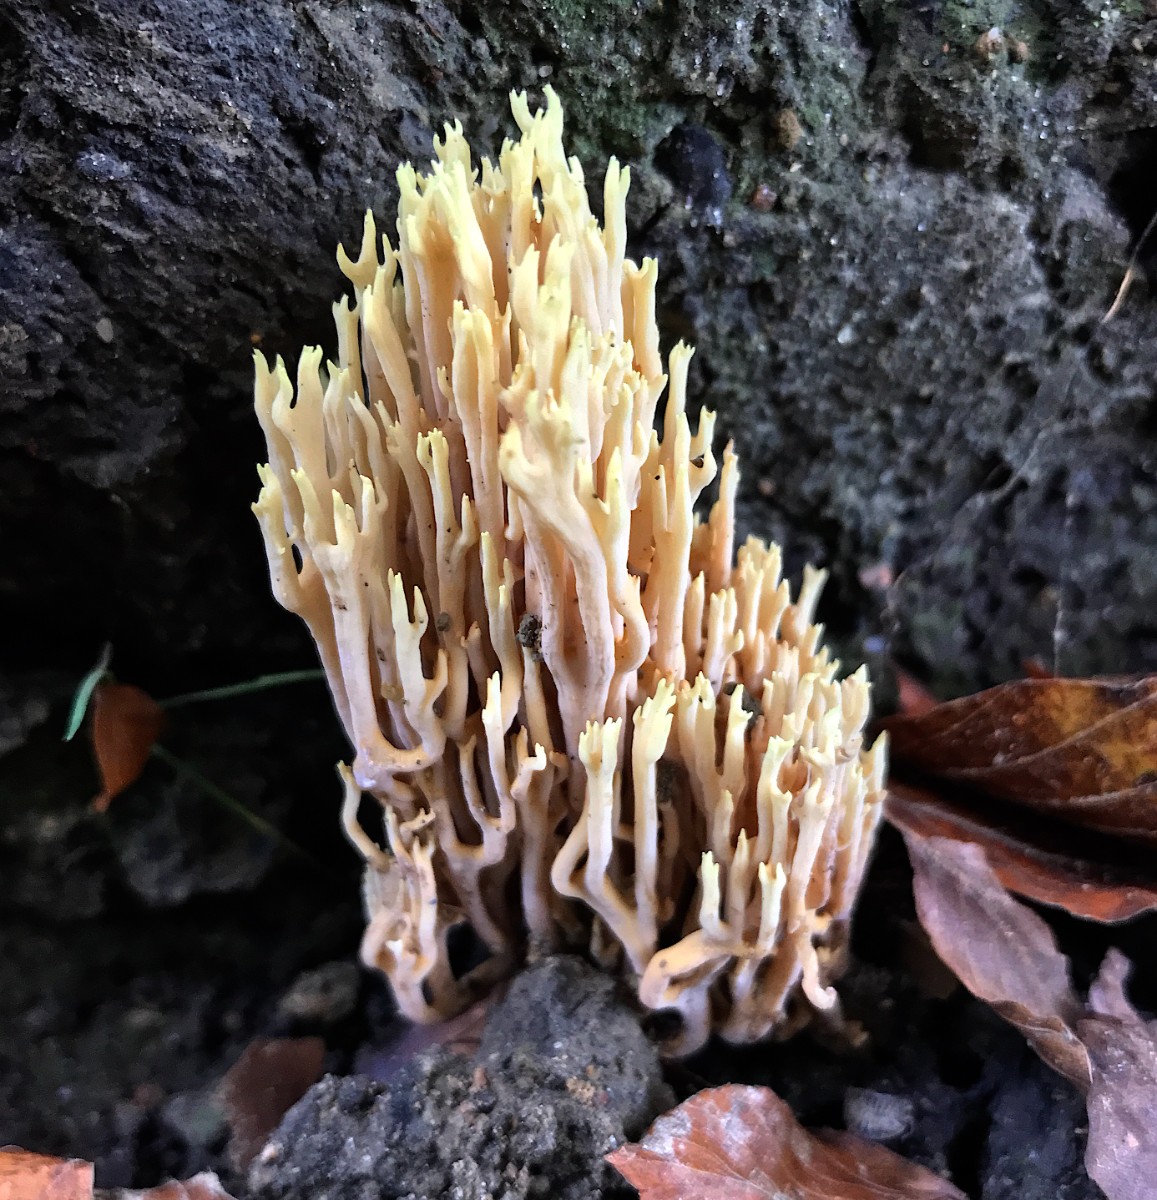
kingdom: Fungi
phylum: Basidiomycota
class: Agaricomycetes
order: Gomphales
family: Gomphaceae
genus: Ramaria
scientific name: Ramaria stricta
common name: rank koralsvamp
